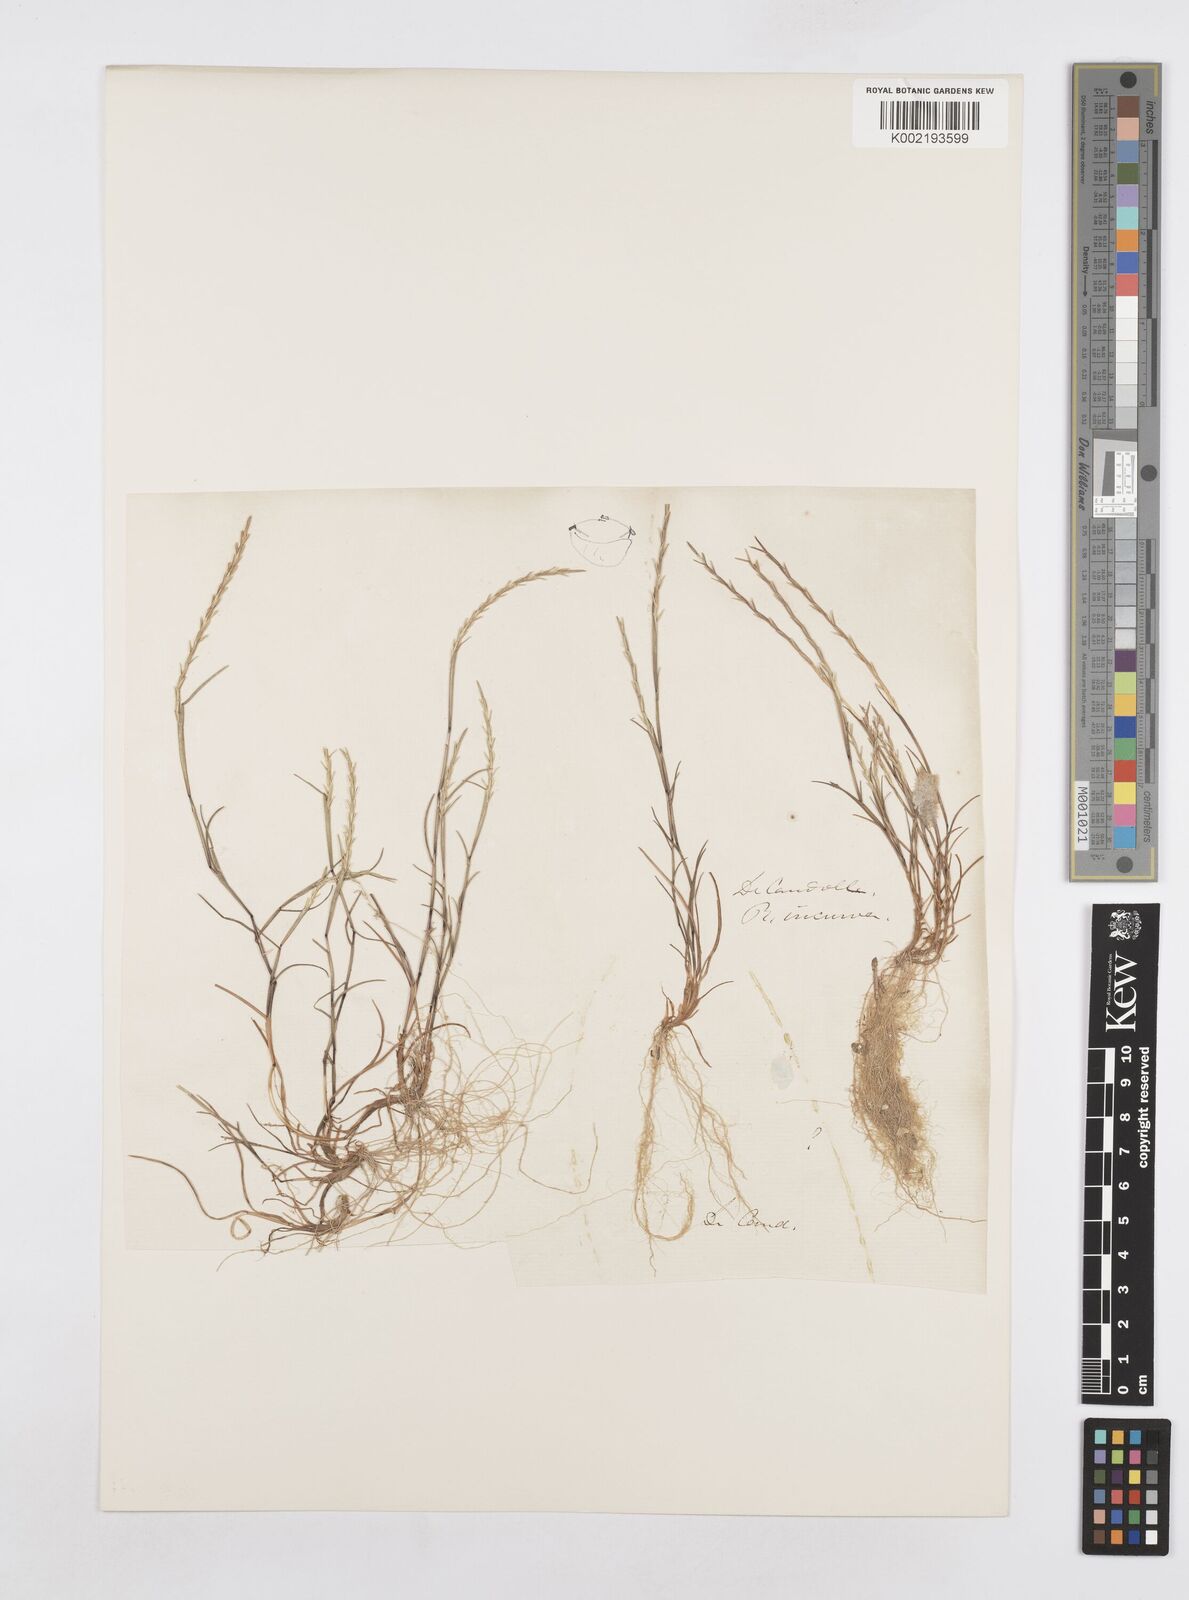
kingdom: Plantae
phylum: Tracheophyta
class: Liliopsida
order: Poales
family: Poaceae
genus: Parapholis
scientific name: Parapholis filiformis
